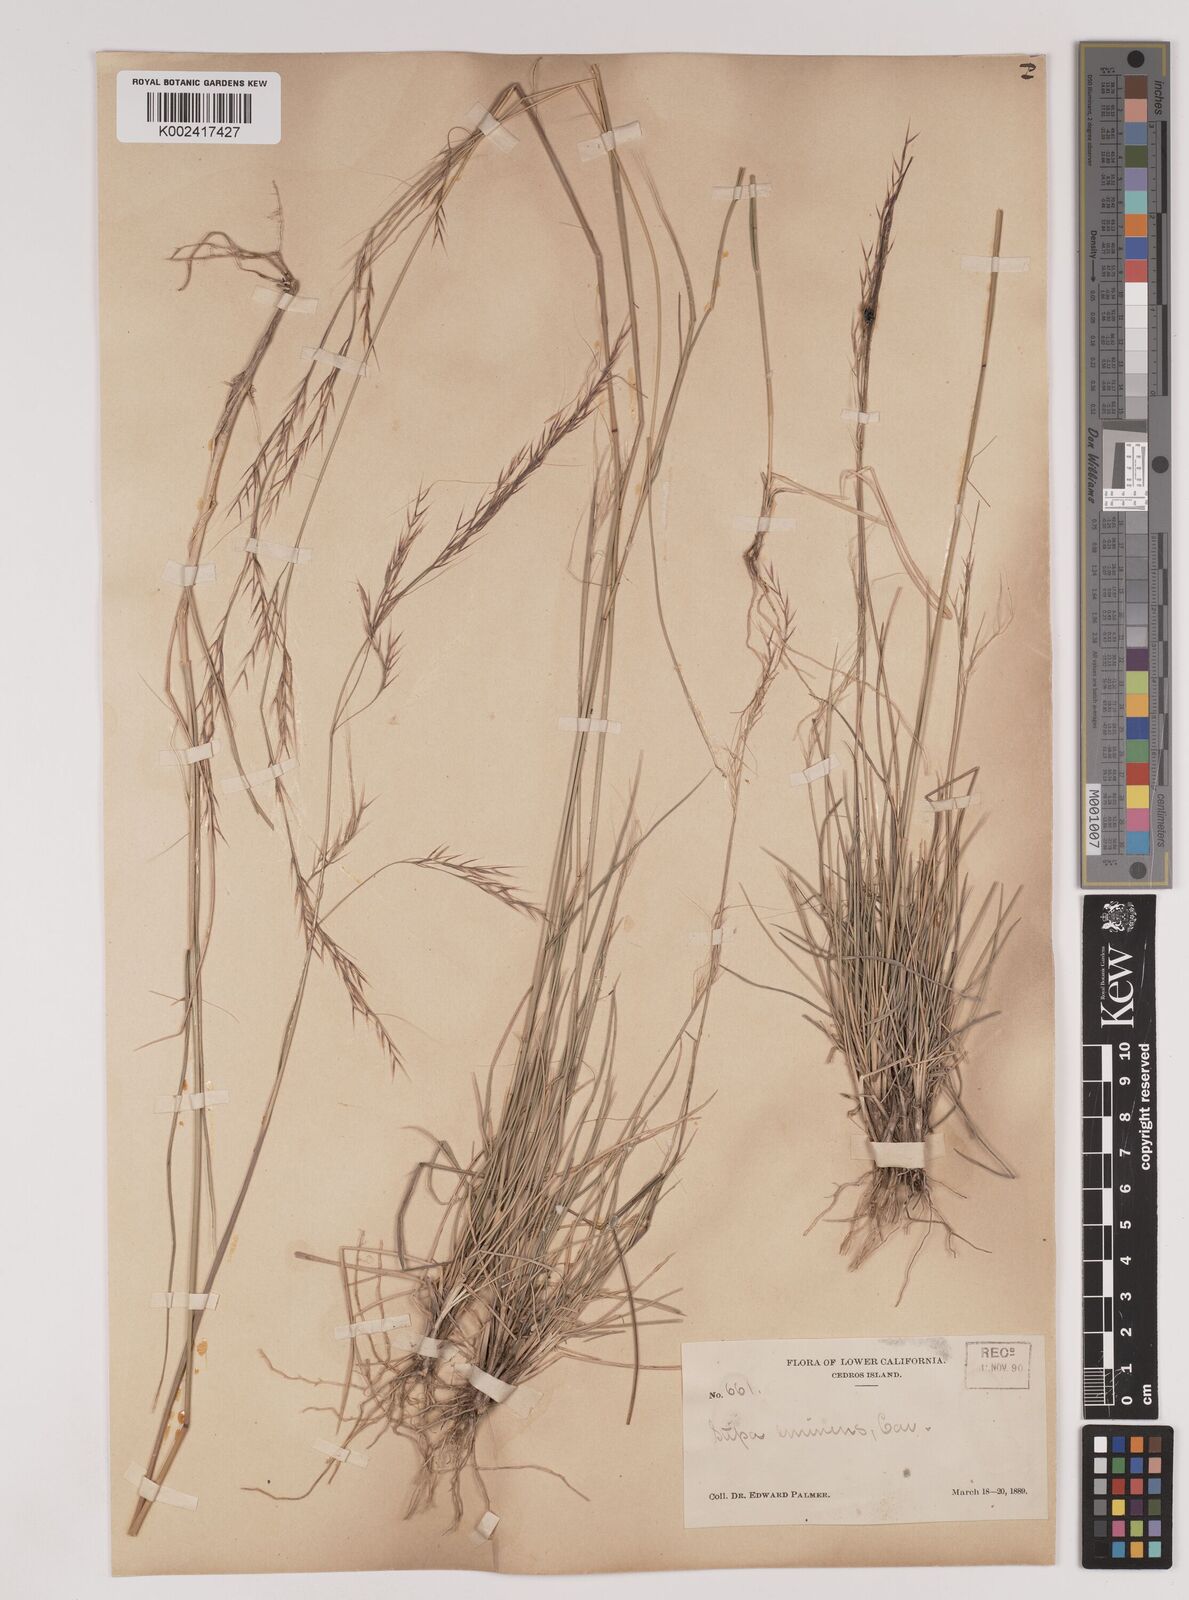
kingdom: Plantae
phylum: Tracheophyta
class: Liliopsida
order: Poales
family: Poaceae
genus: Nassella
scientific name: Nassella mucronata
